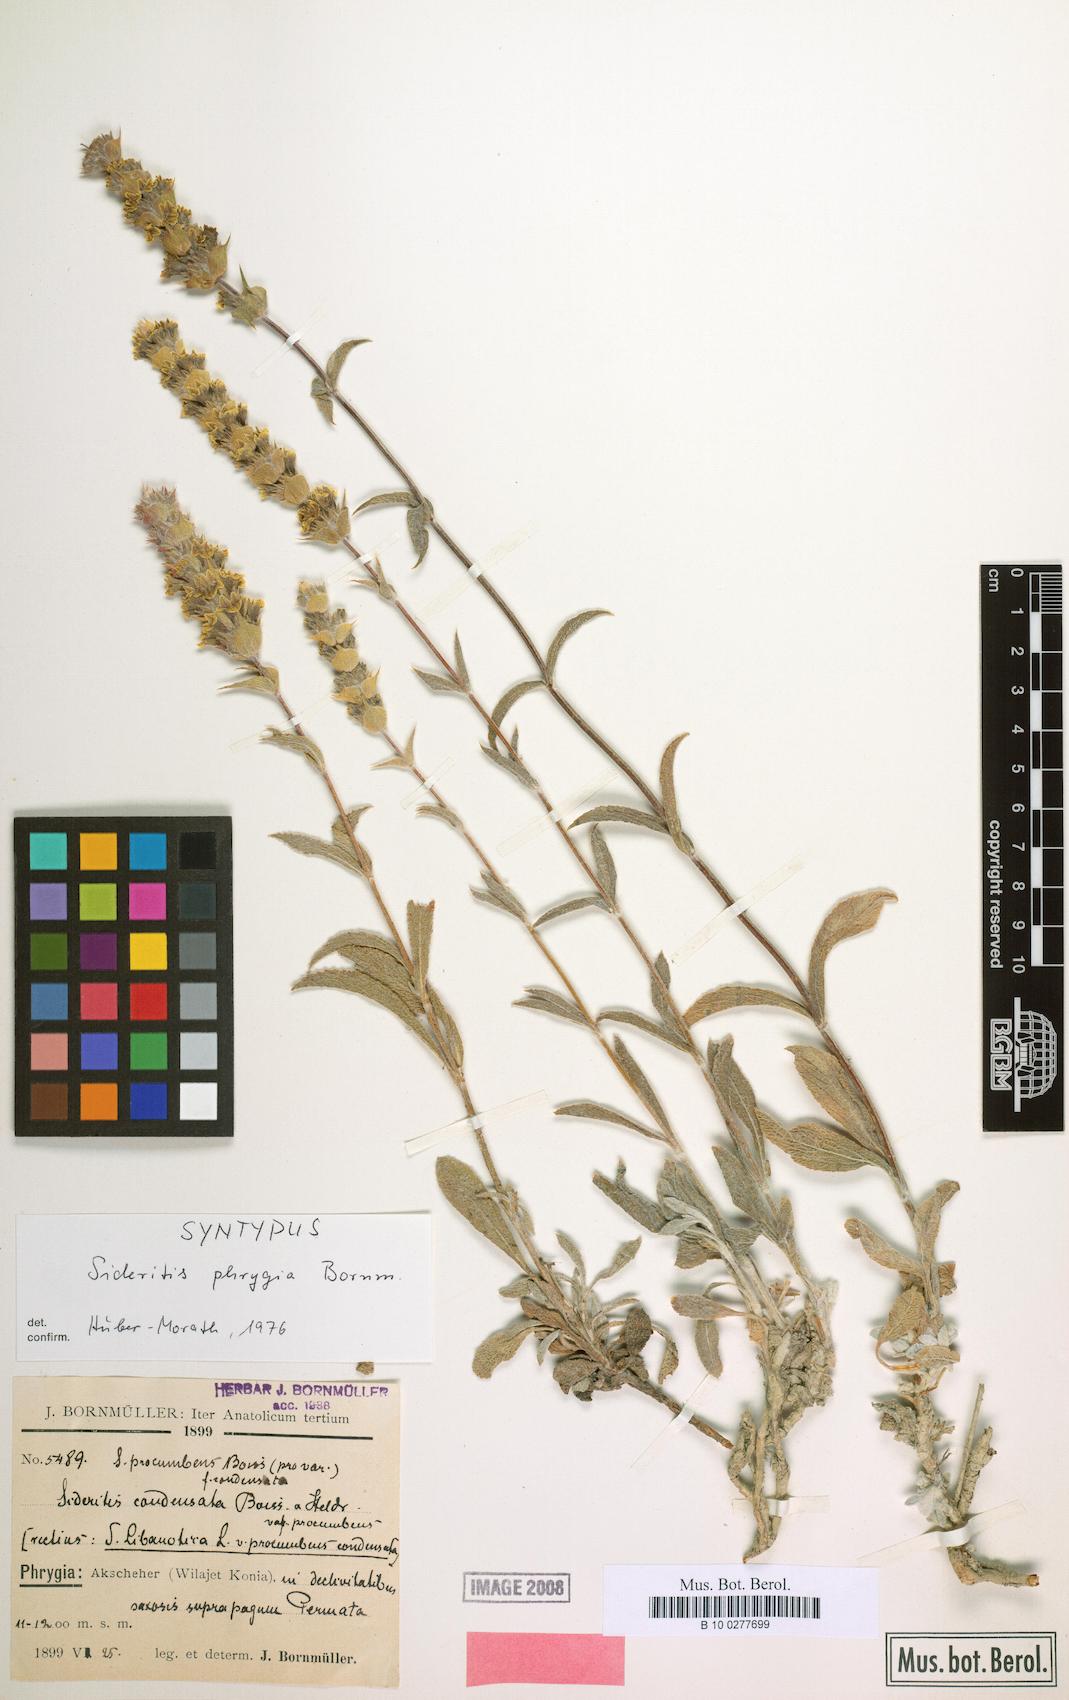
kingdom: Plantae
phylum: Tracheophyta
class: Magnoliopsida
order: Lamiales
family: Lamiaceae
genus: Sideritis
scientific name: Sideritis phrygia
